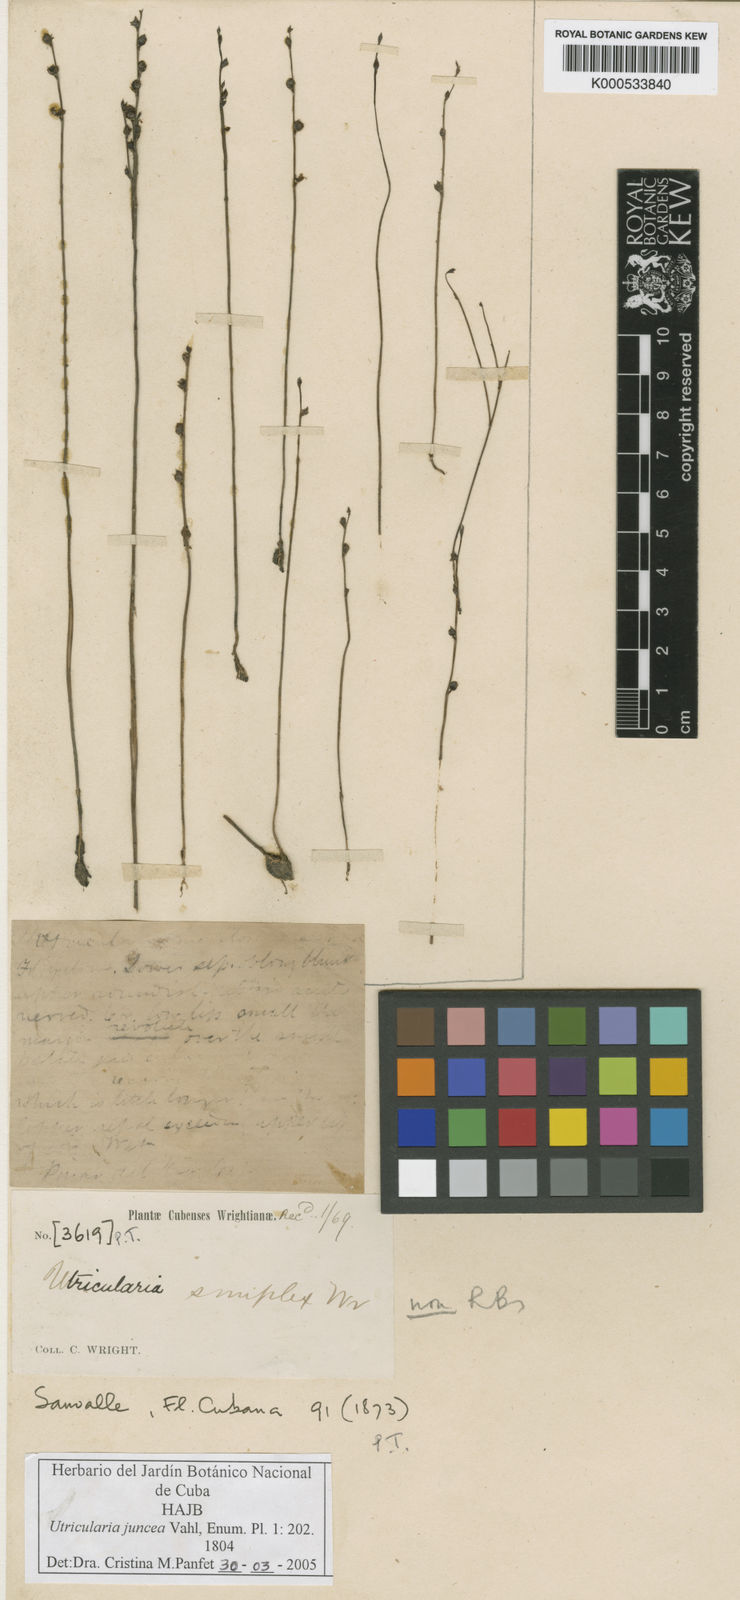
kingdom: Plantae
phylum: Tracheophyta
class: Magnoliopsida
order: Lamiales
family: Lentibulariaceae
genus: Utricularia
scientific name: Utricularia juncea
